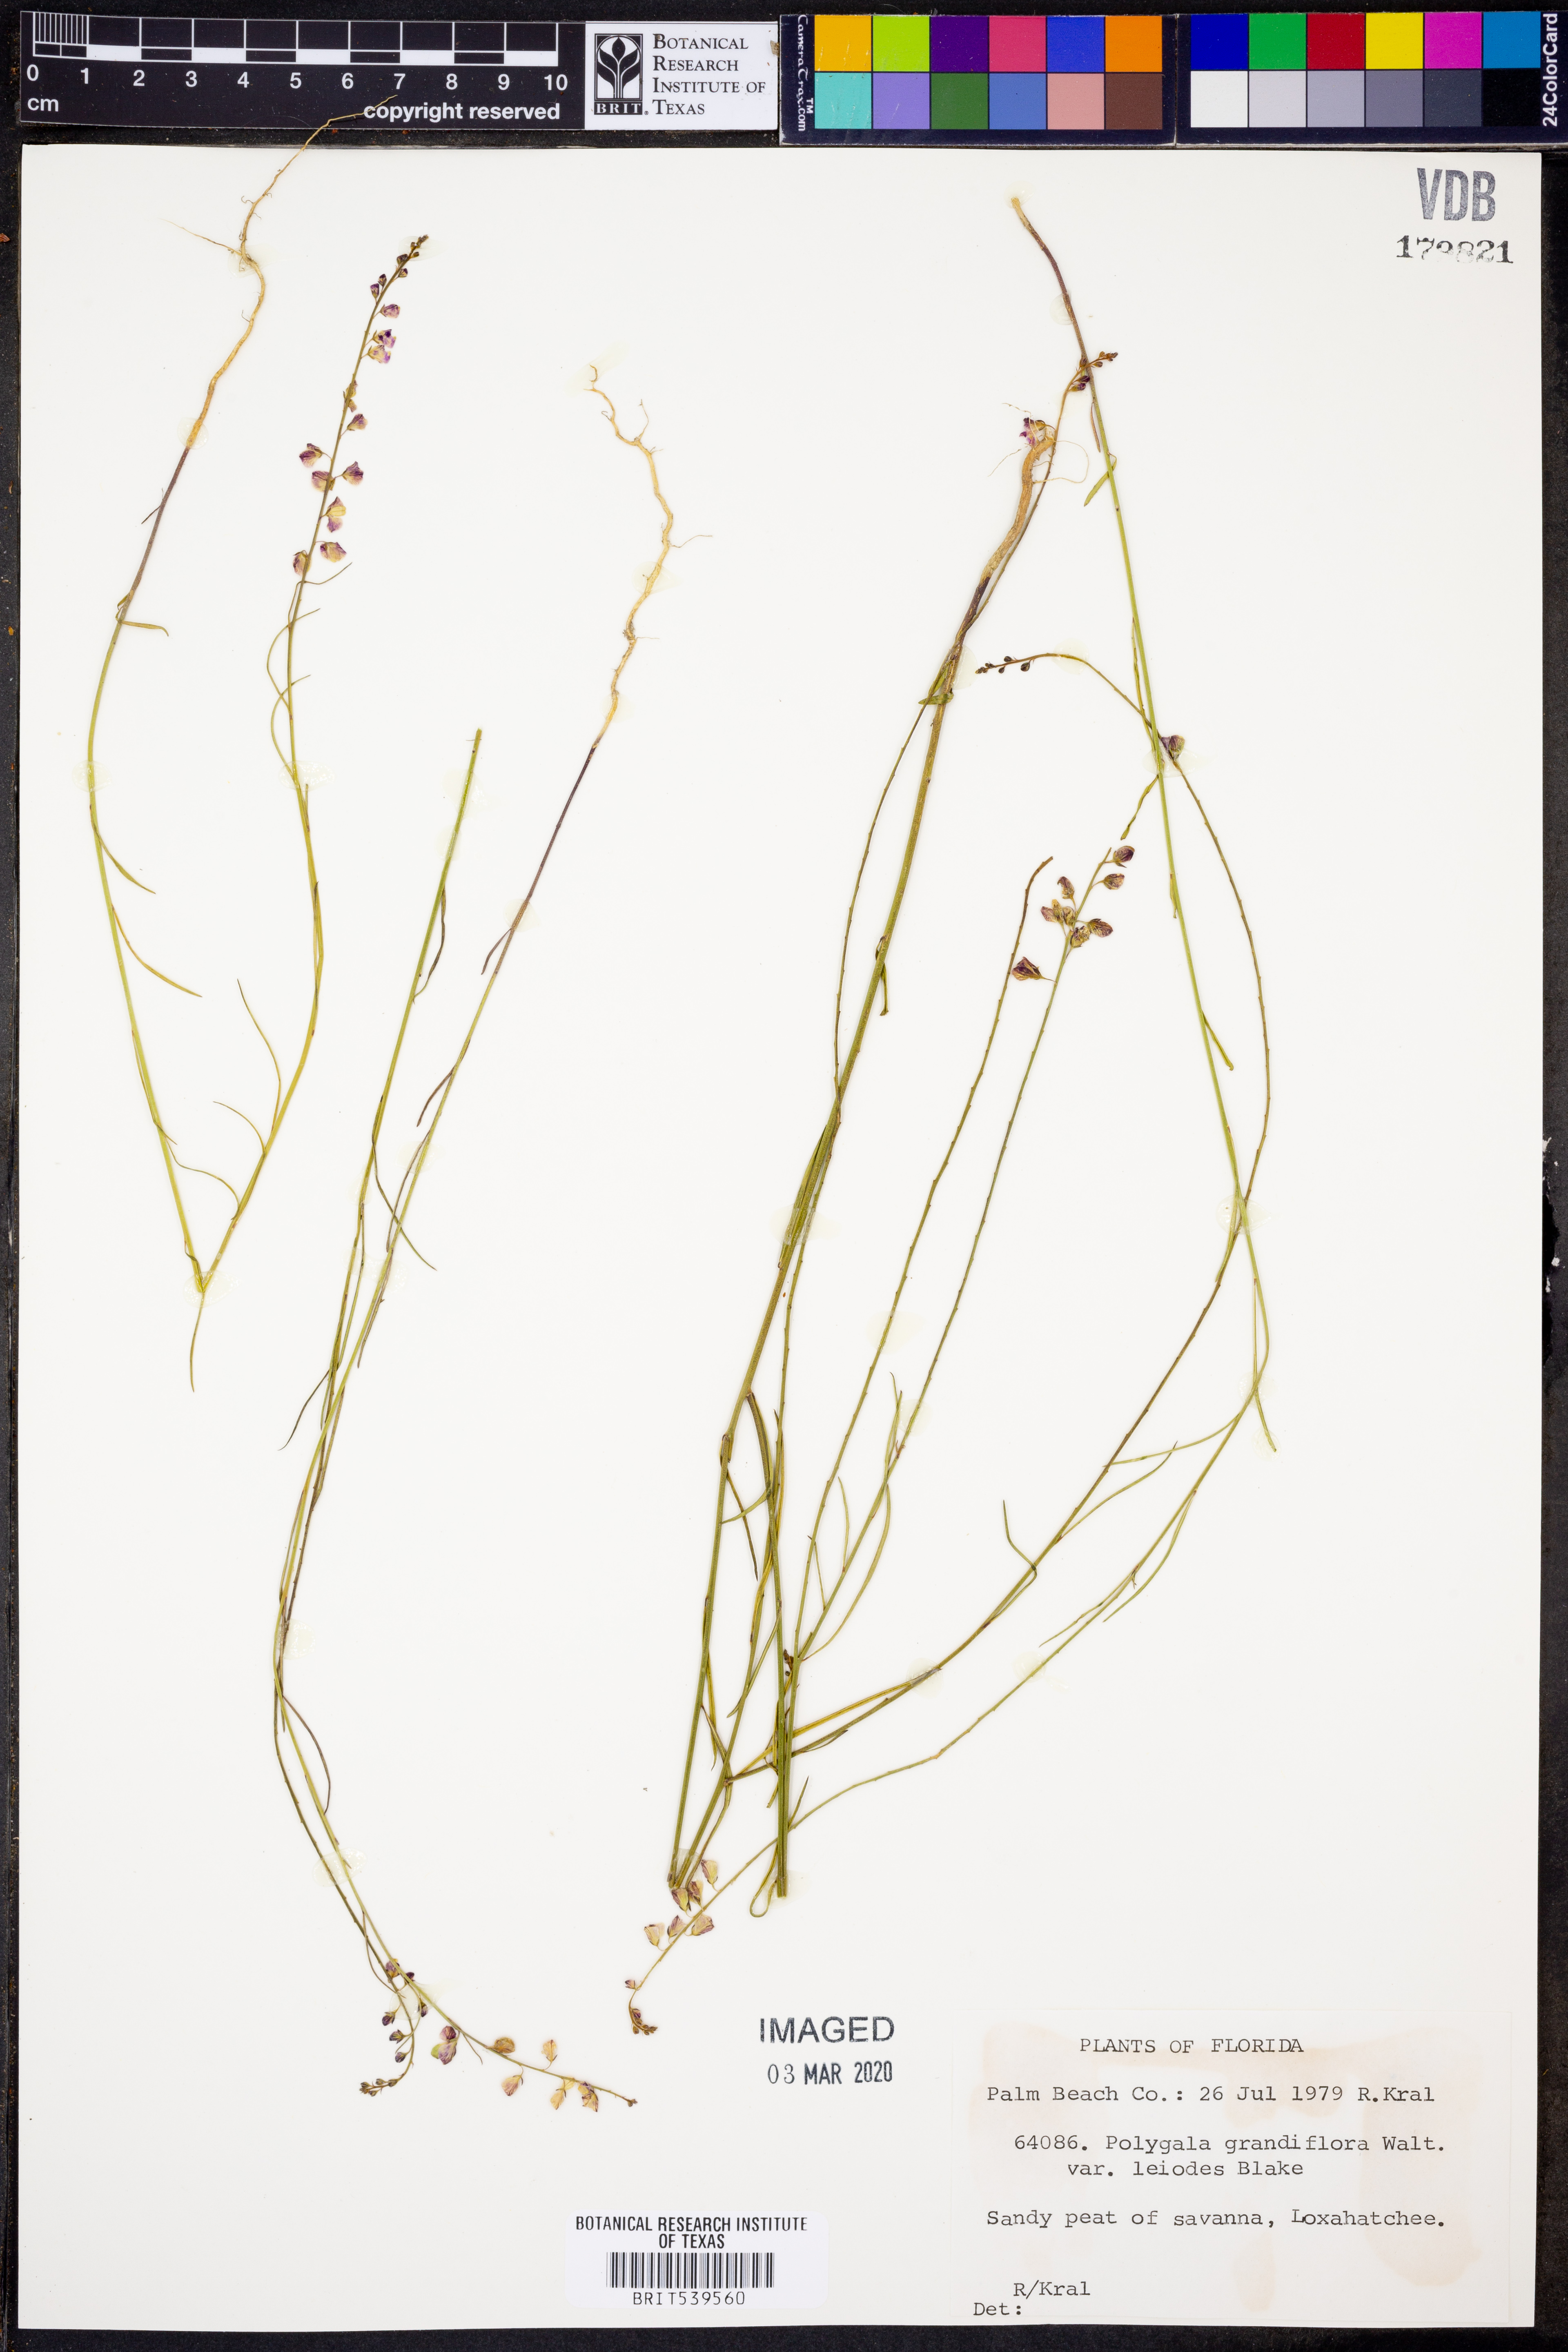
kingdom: Plantae
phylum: Tracheophyta
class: Magnoliopsida
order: Fabales
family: Polygalaceae
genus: Asemeia
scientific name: Asemeia grandiflora
